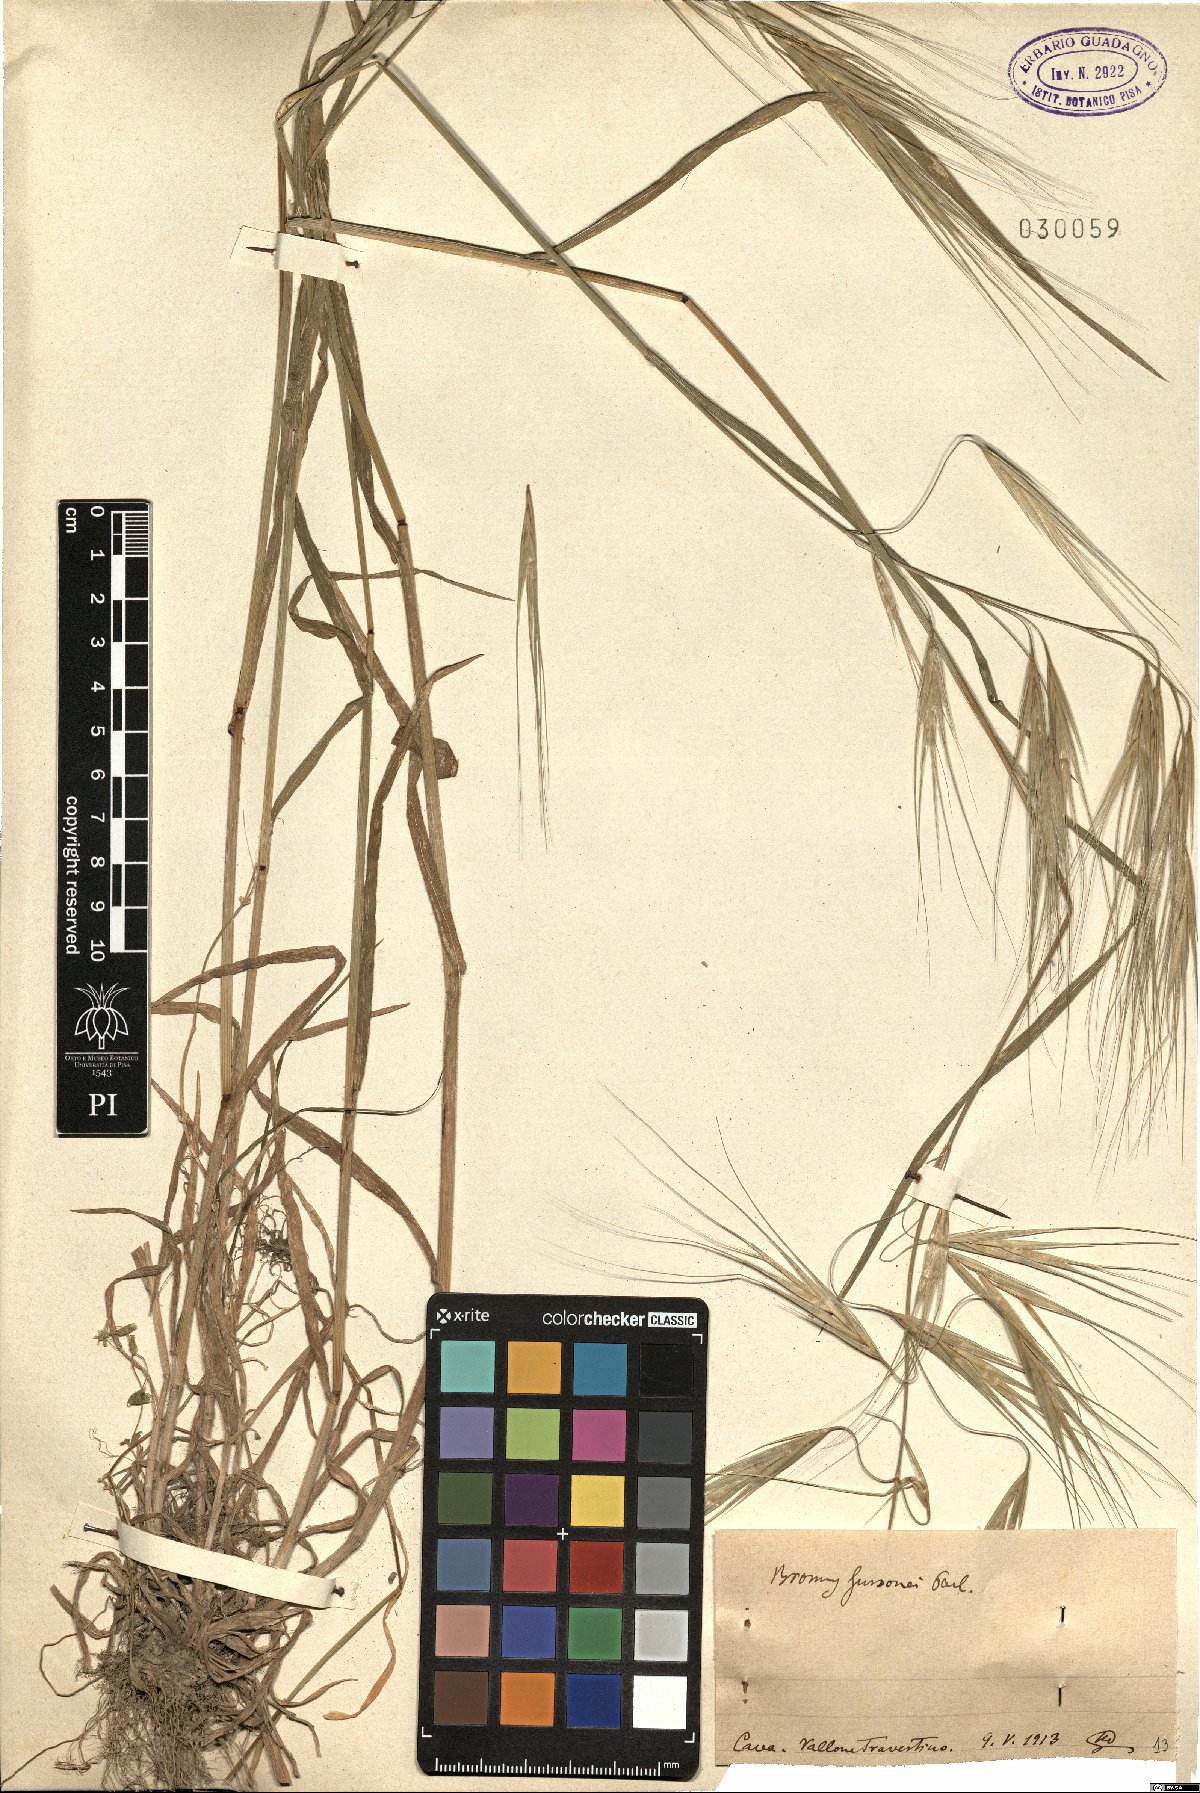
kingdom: Plantae
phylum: Tracheophyta
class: Liliopsida
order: Poales
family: Poaceae
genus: Bromus
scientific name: Bromus diandrus
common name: Ripgut brome
